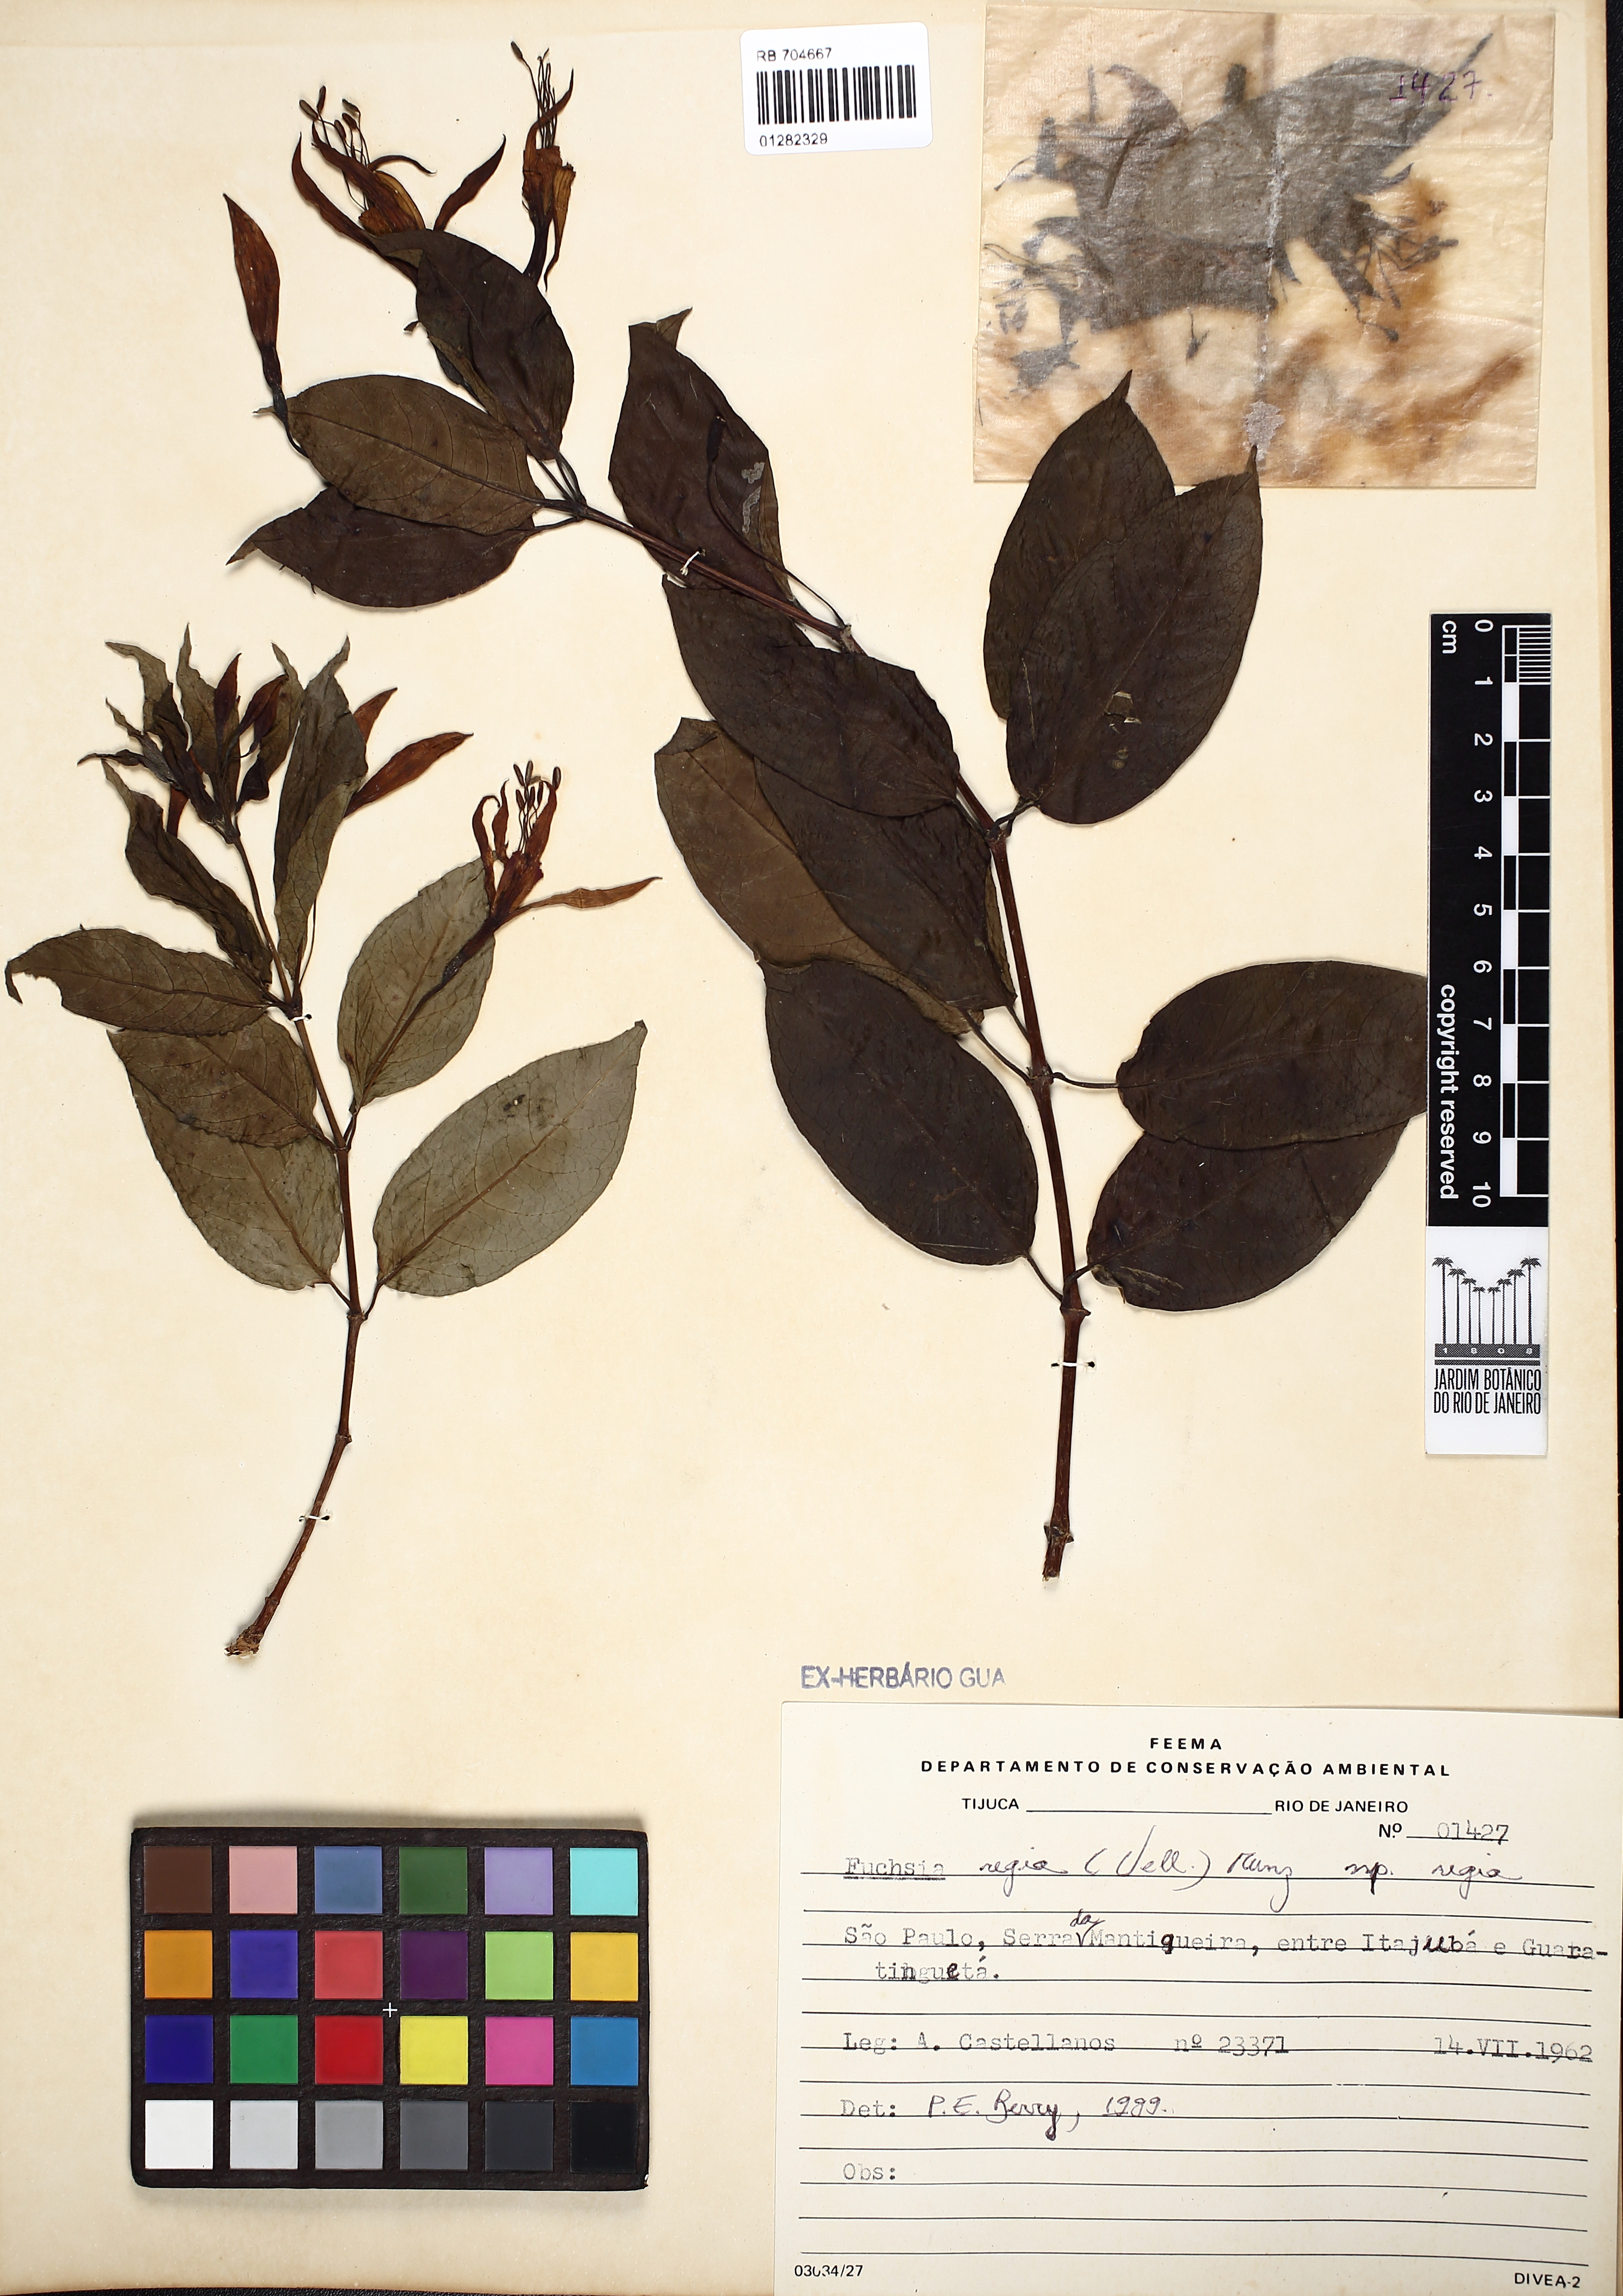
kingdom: Plantae
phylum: Tracheophyta
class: Magnoliopsida
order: Myrtales
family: Onagraceae
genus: Fuchsia
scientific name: Fuchsia regia
